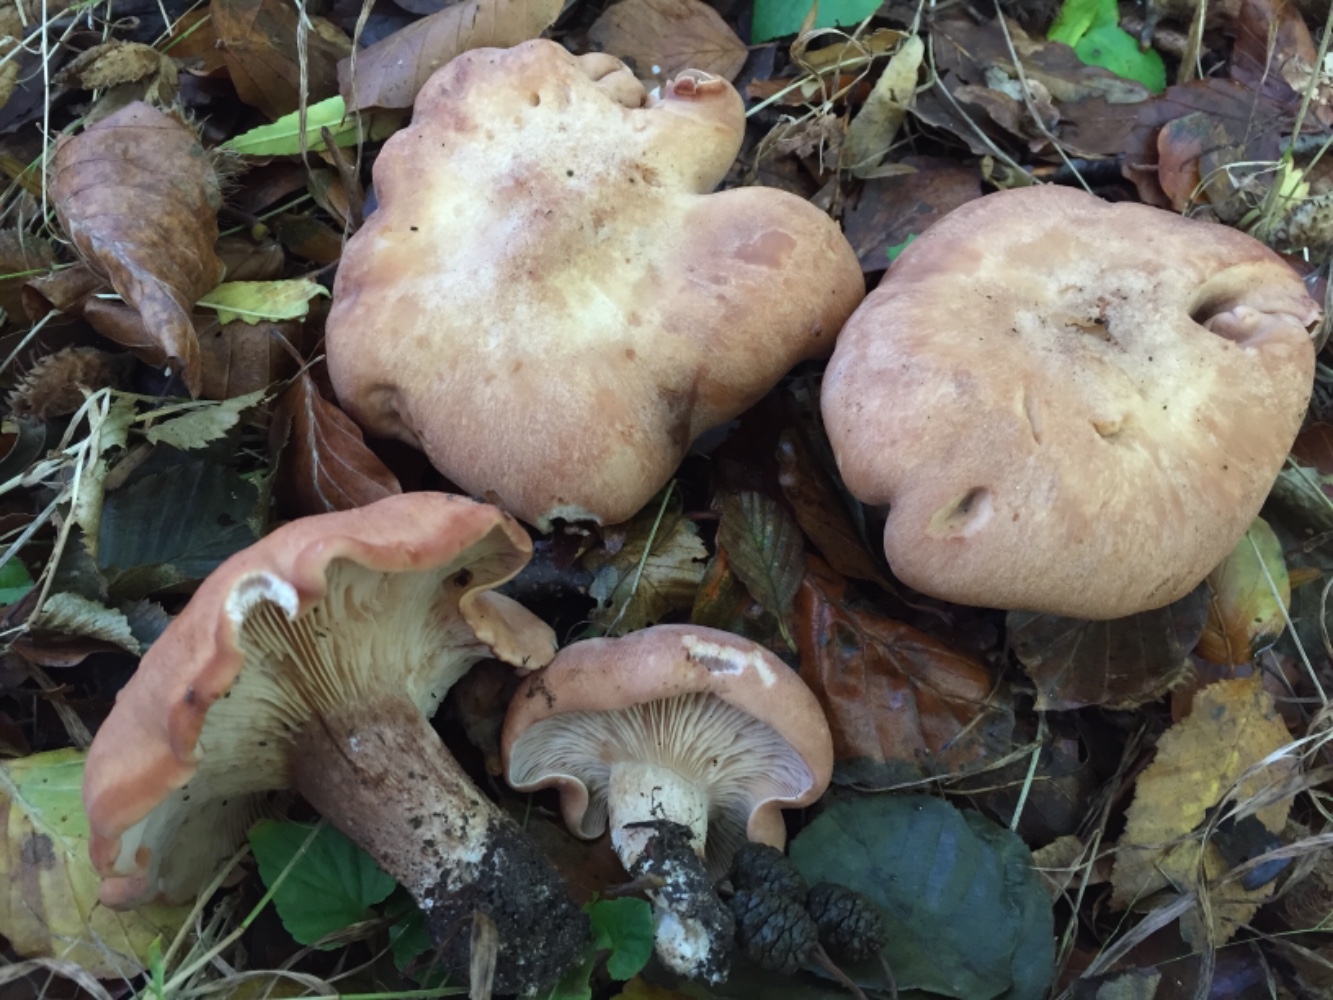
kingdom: Fungi
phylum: Basidiomycota
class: Agaricomycetes
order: Agaricales
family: Entolomataceae
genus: Clitopilus
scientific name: Clitopilus geminus
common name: kødfarvet troldhat
